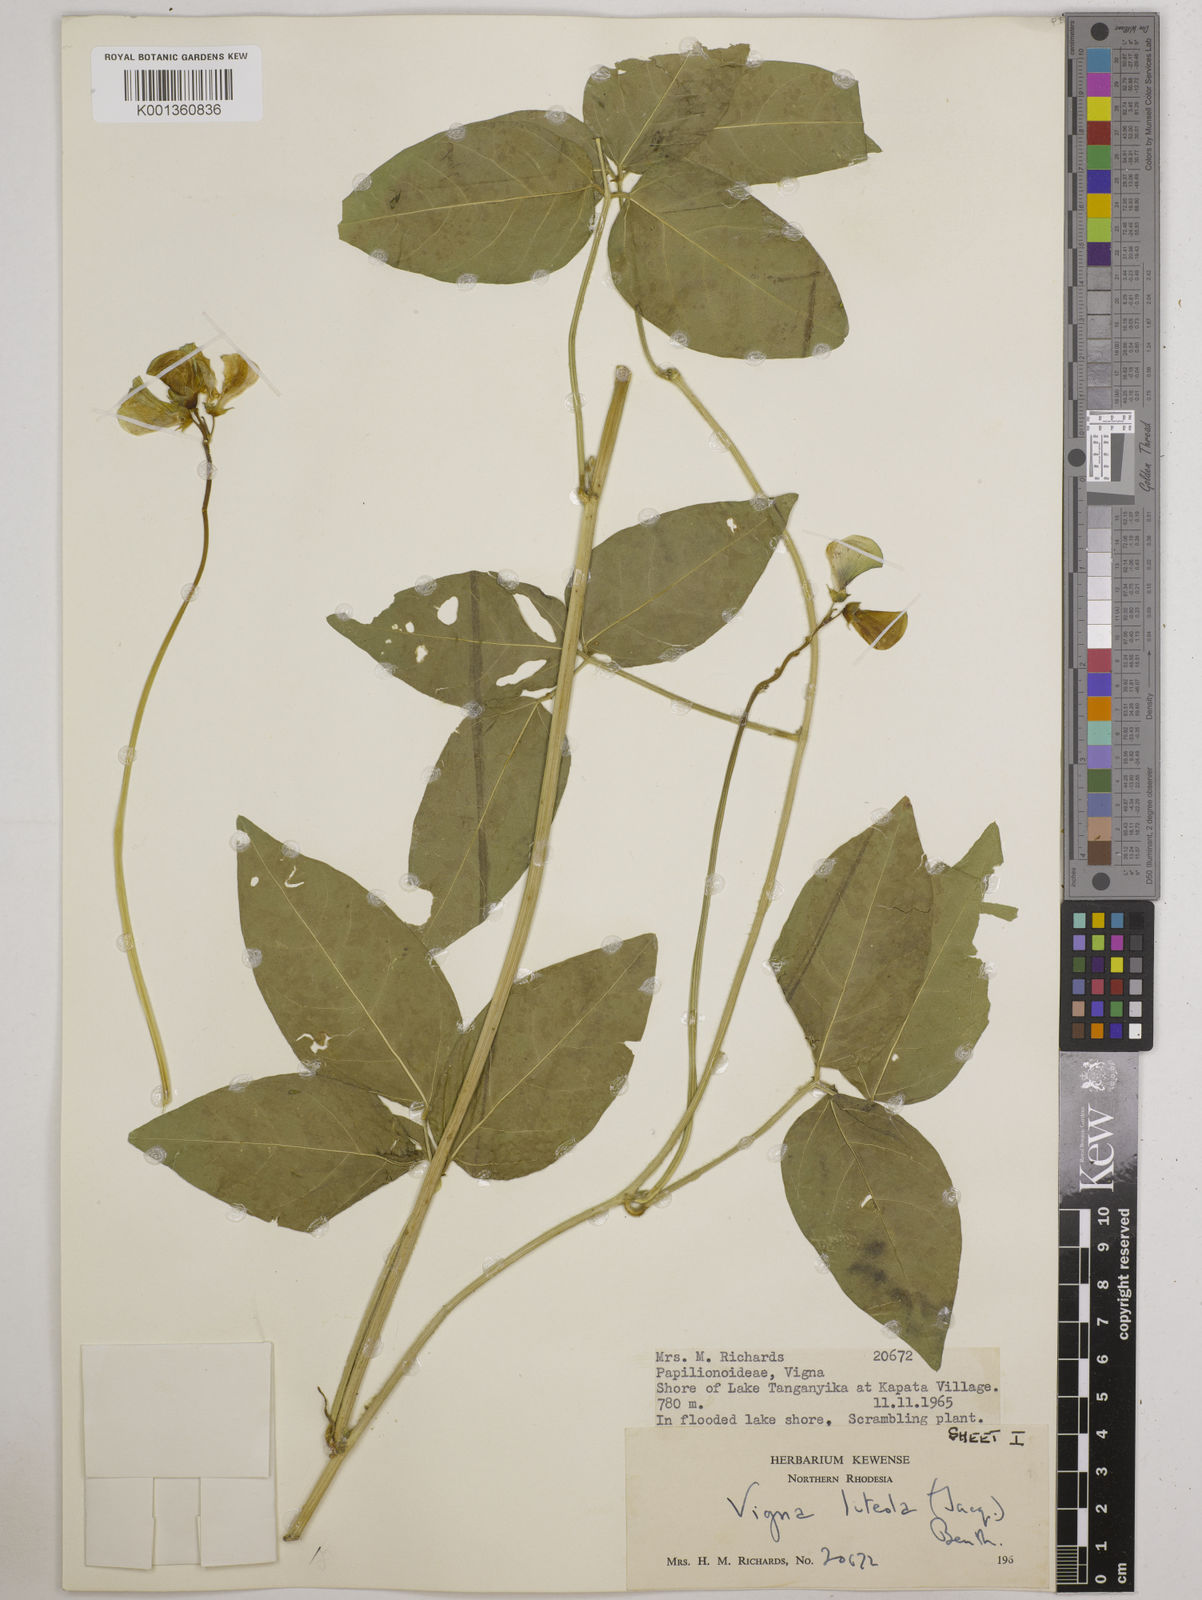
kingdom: Plantae
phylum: Tracheophyta
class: Magnoliopsida
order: Fabales
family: Fabaceae
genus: Vigna
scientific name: Vigna luteola
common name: Hairypod cowpea
